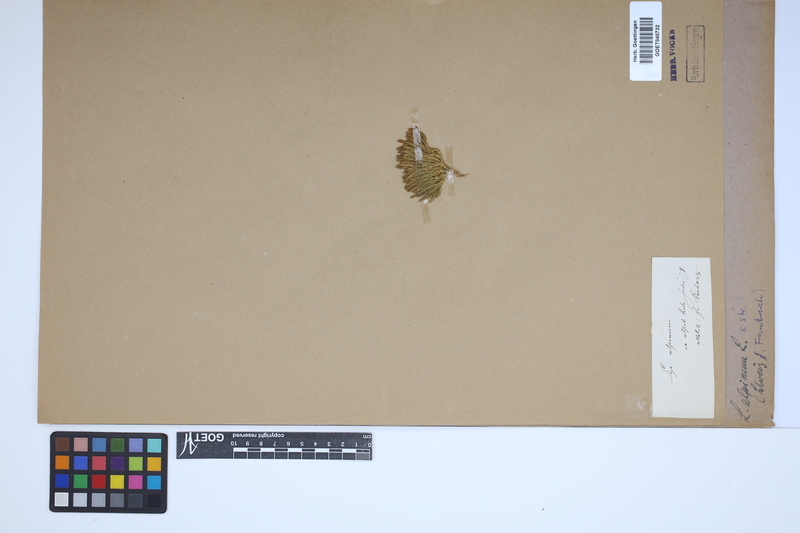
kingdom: Plantae
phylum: Tracheophyta
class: Lycopodiopsida
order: Lycopodiales
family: Lycopodiaceae
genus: Diphasiastrum
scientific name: Diphasiastrum alpinum
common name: Alpine clubmoss
